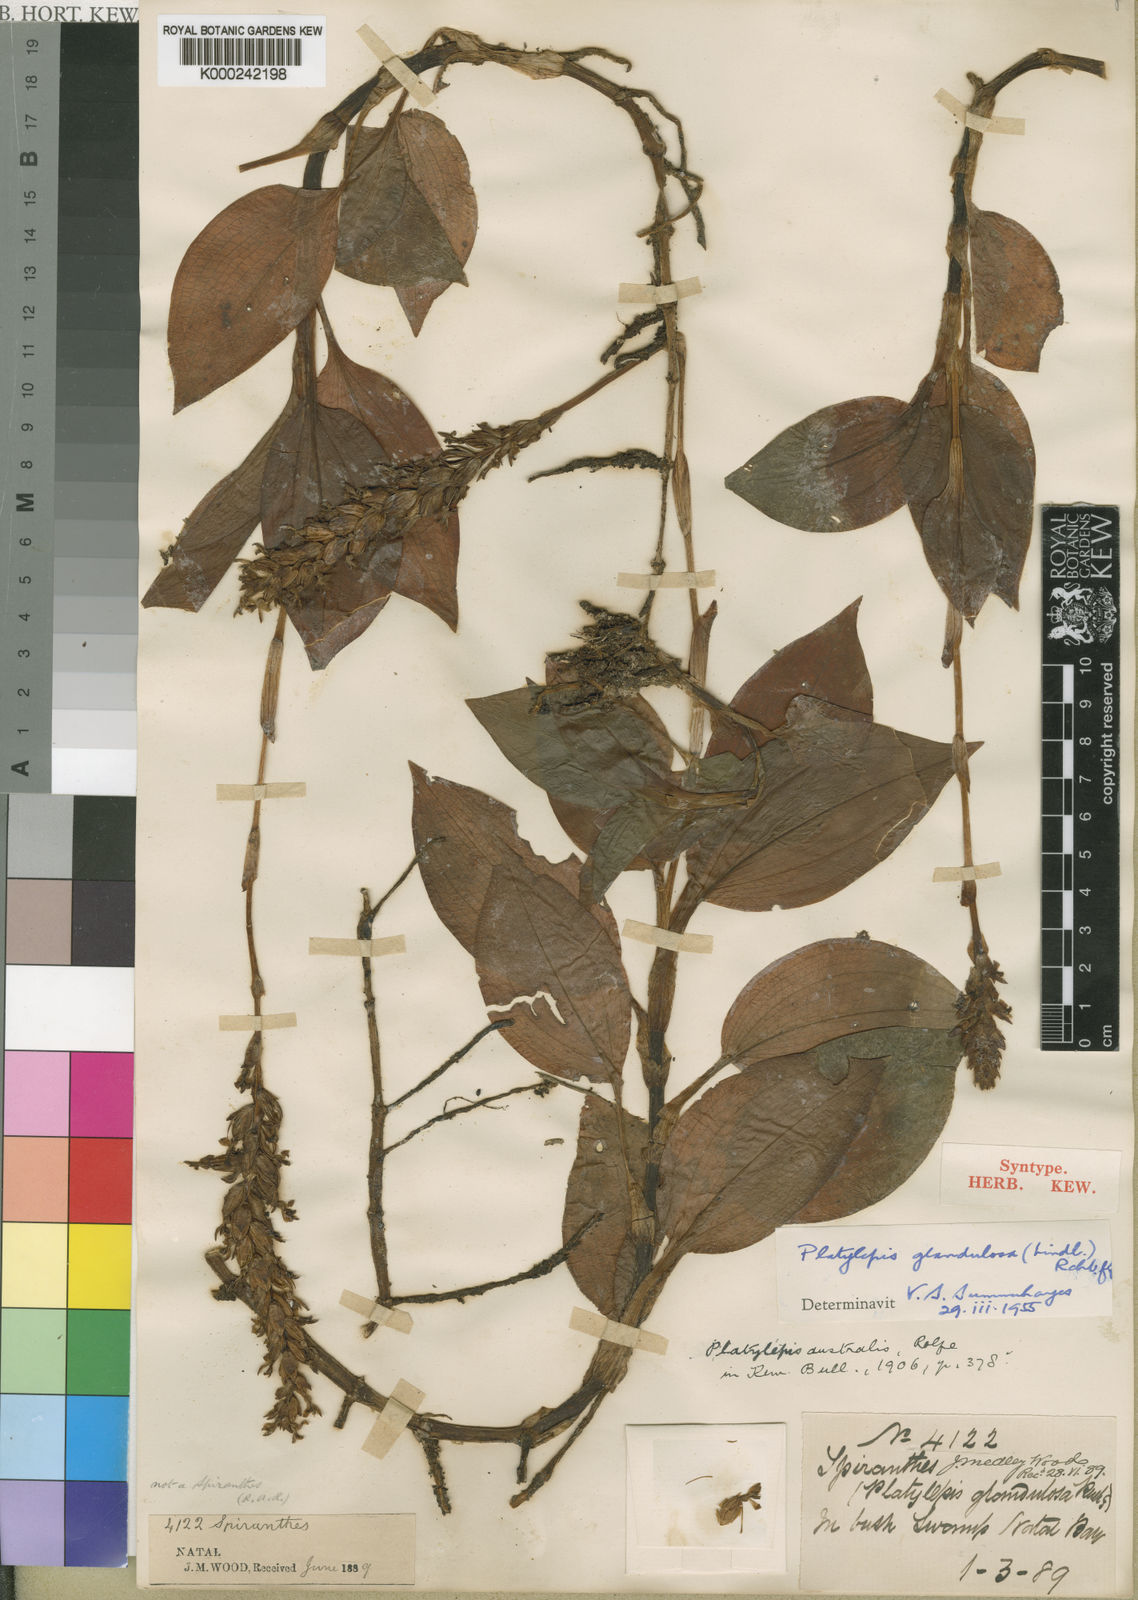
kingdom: Plantae
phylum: Tracheophyta
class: Liliopsida
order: Asparagales
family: Orchidaceae
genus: Platylepis
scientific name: Platylepis glandulosa
